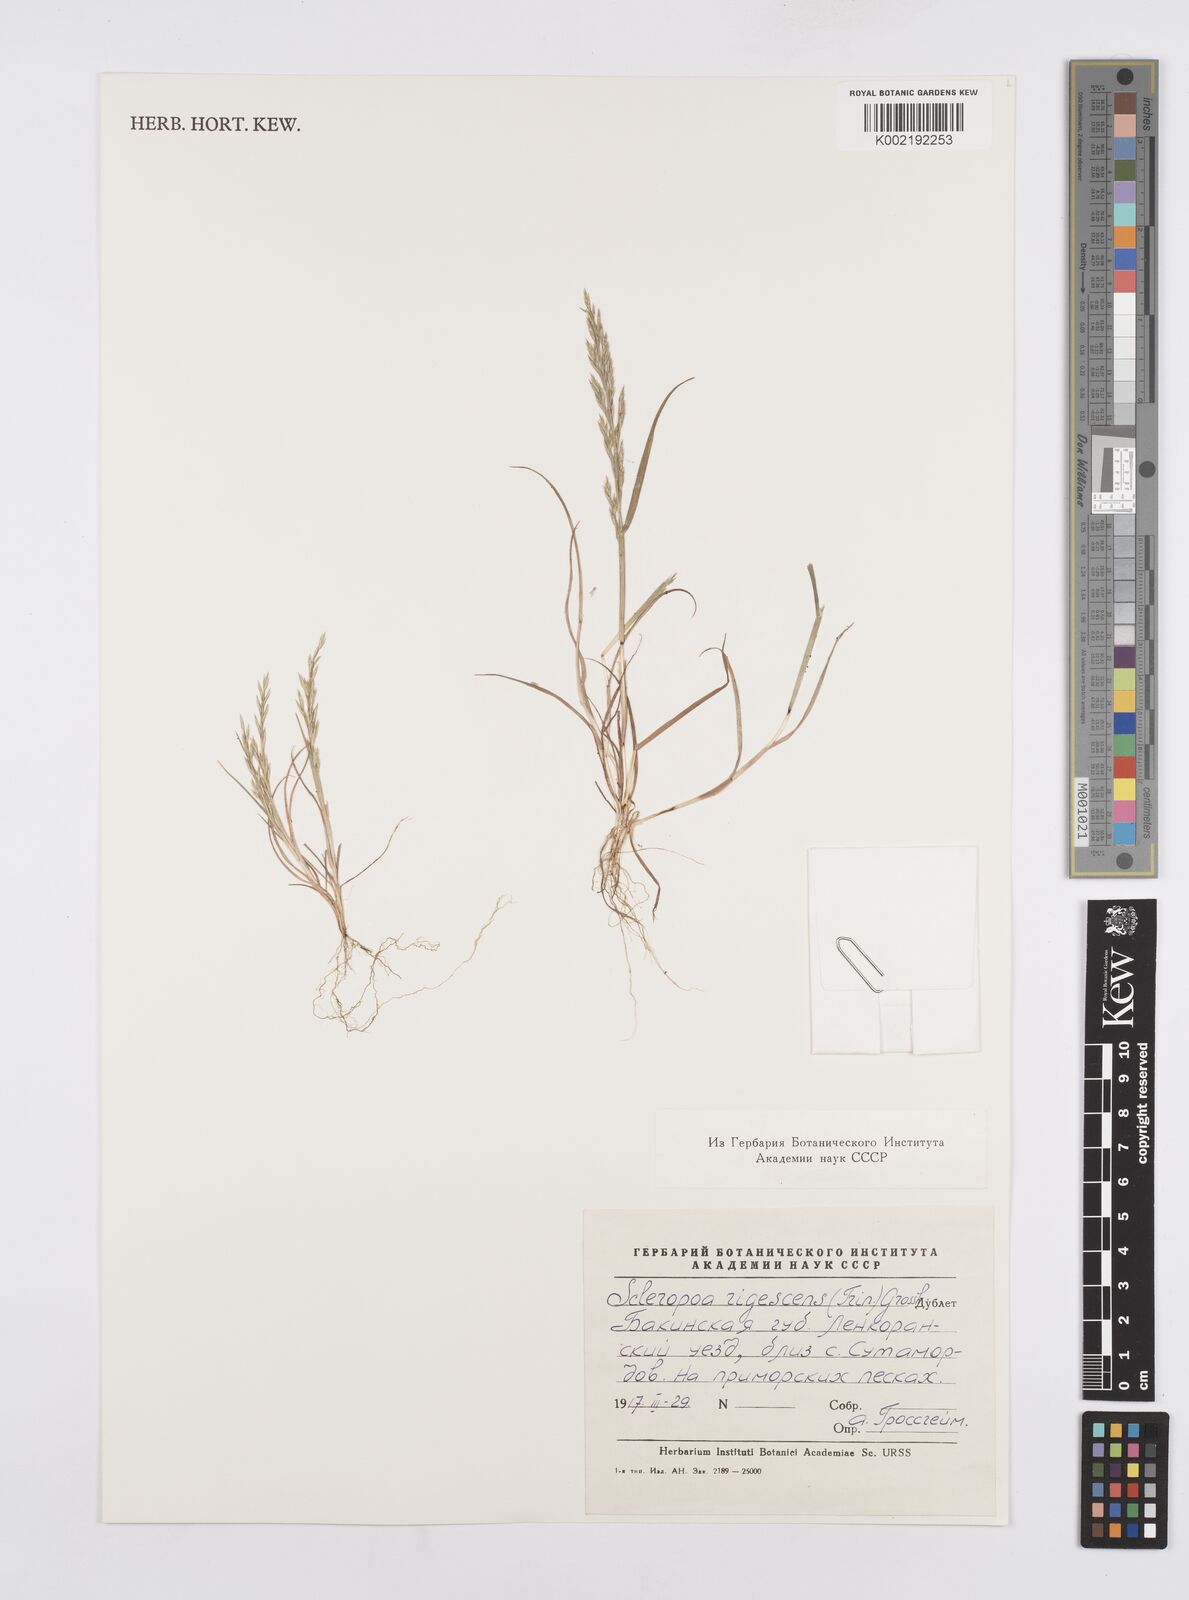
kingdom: Plantae
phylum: Tracheophyta
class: Liliopsida
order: Poales
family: Poaceae
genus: Cutandia
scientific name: Cutandia rigescens
